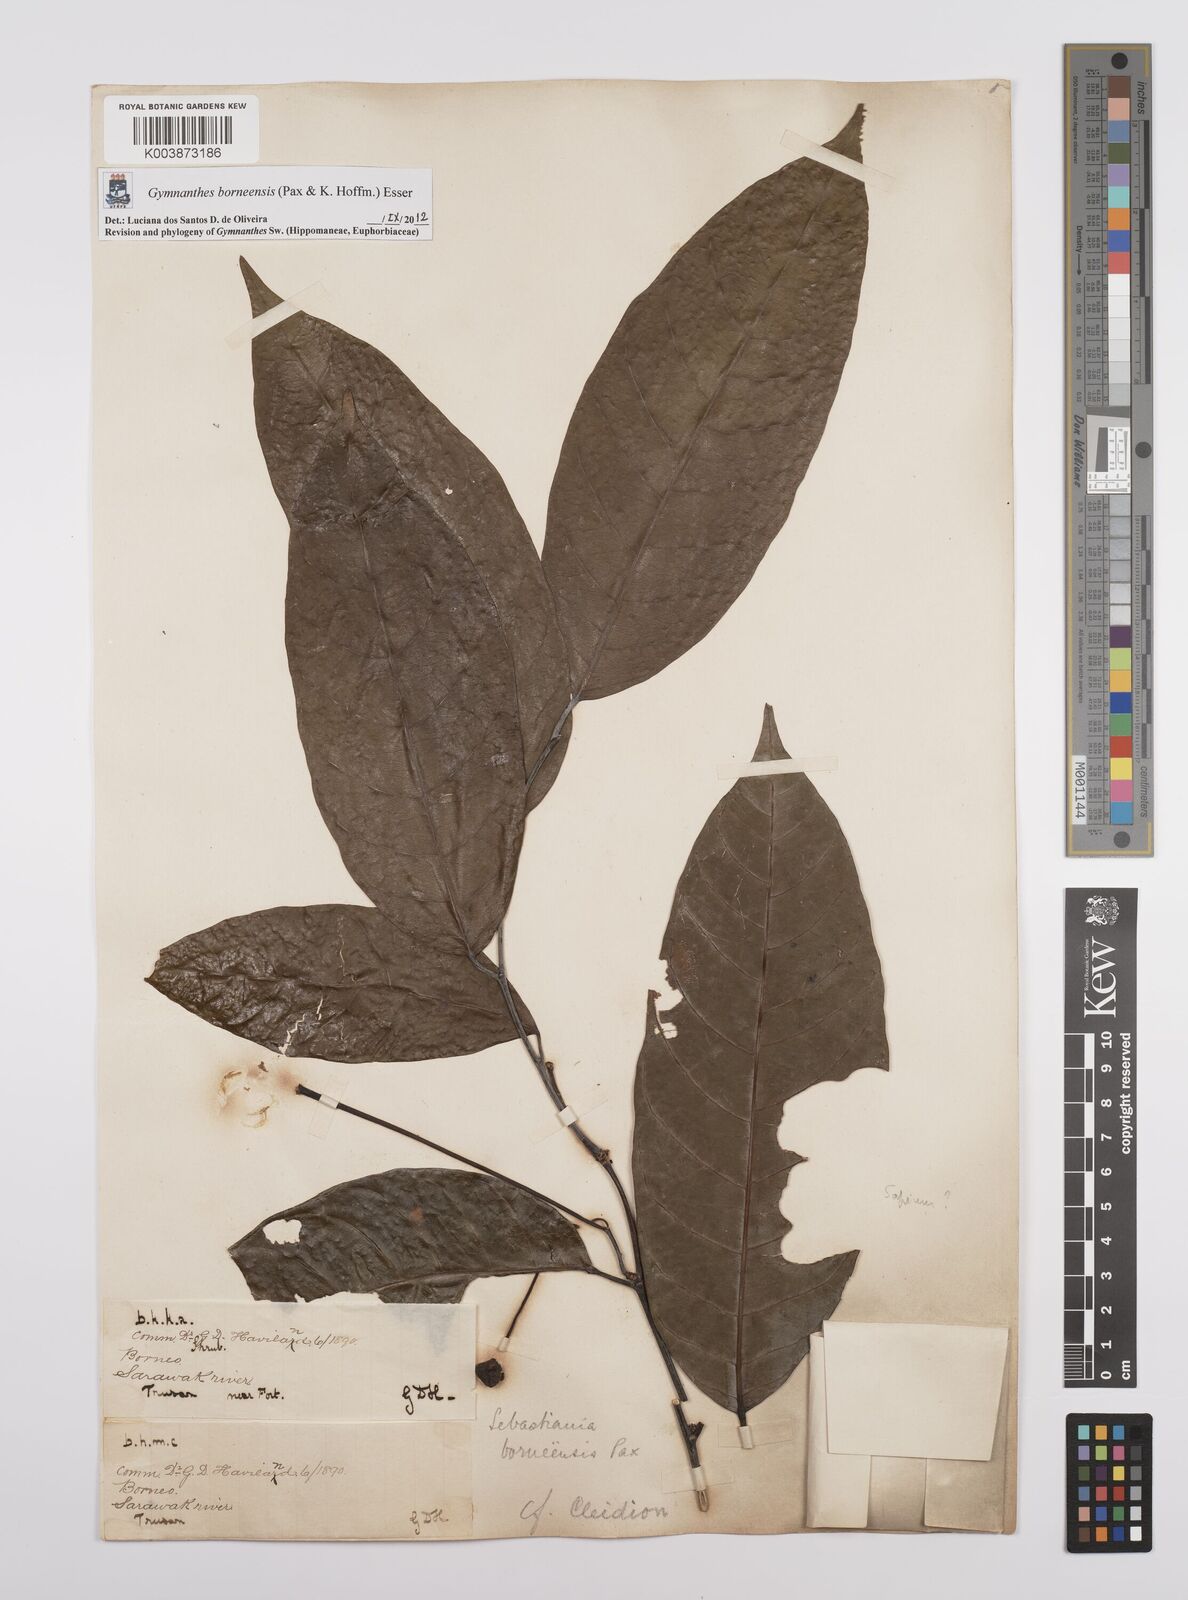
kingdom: Plantae
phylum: Tracheophyta
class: Magnoliopsida
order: Malpighiales
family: Euphorbiaceae
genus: Gymnanthes
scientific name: Gymnanthes borneensis
